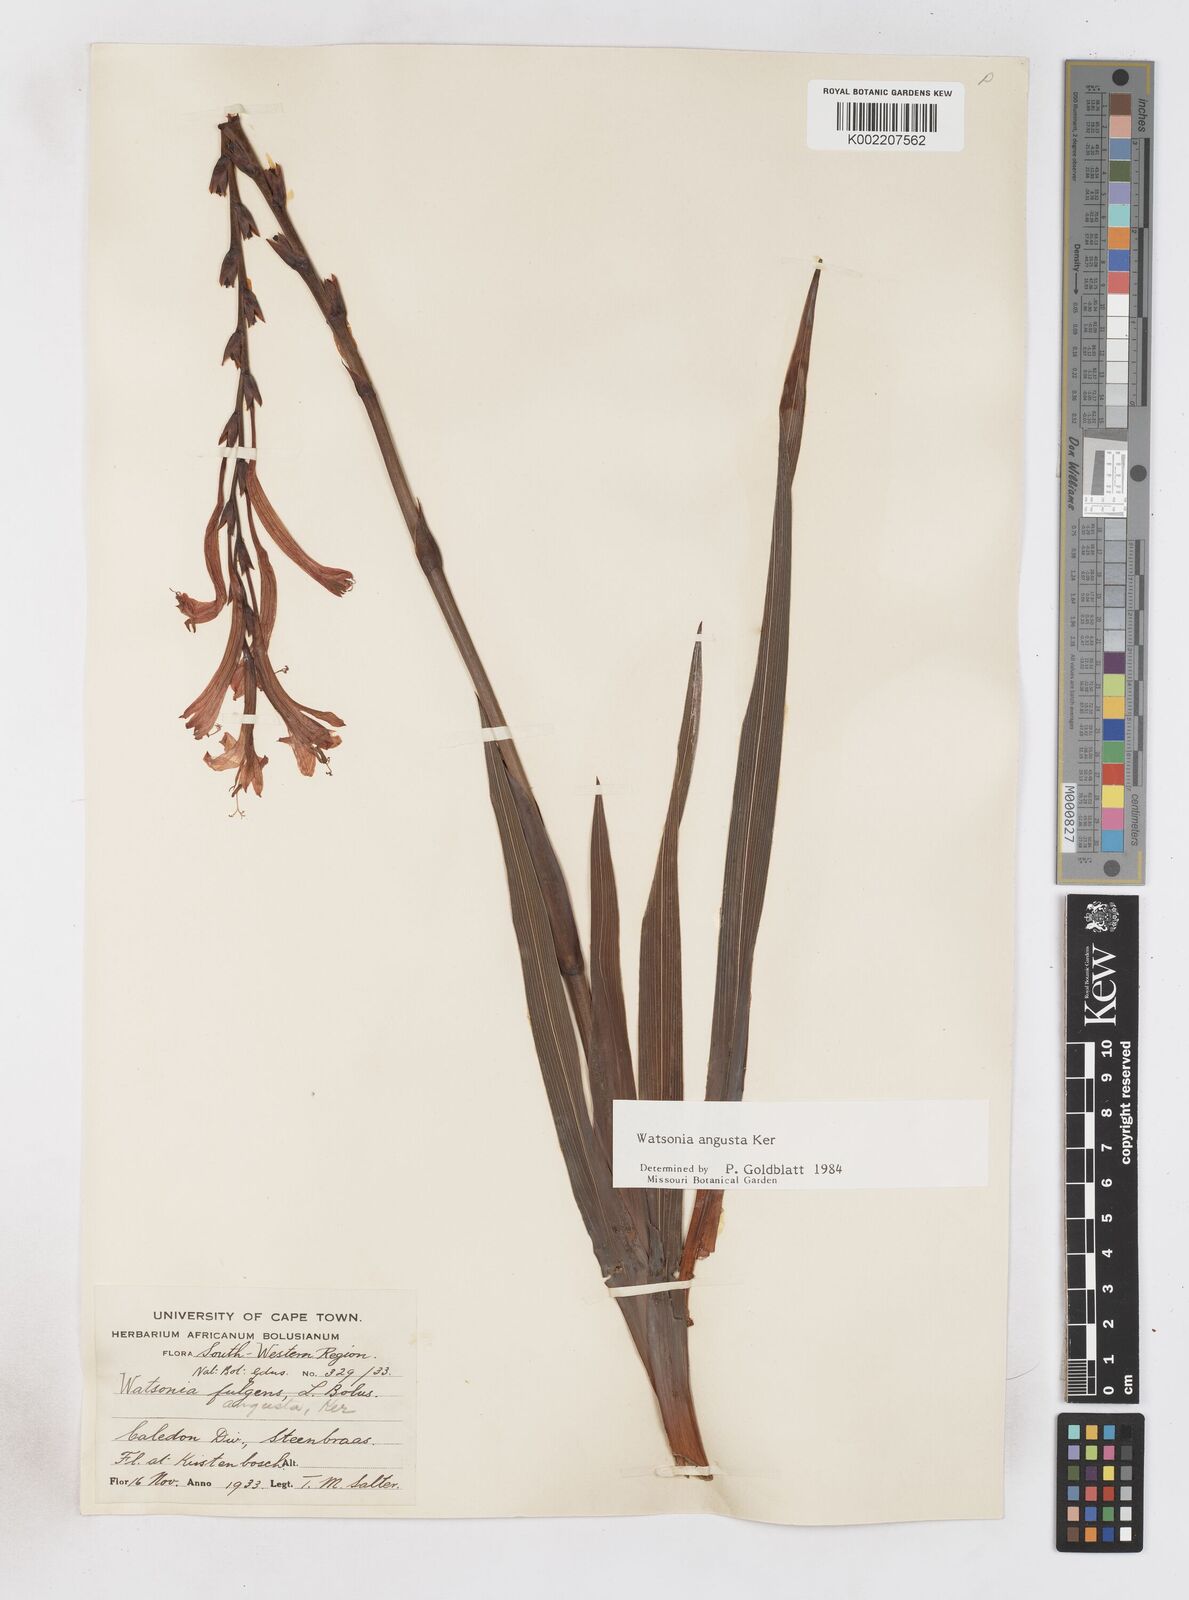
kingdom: Plantae
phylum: Tracheophyta
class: Liliopsida
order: Asparagales
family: Iridaceae
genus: Watsonia
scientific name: Watsonia angusta
